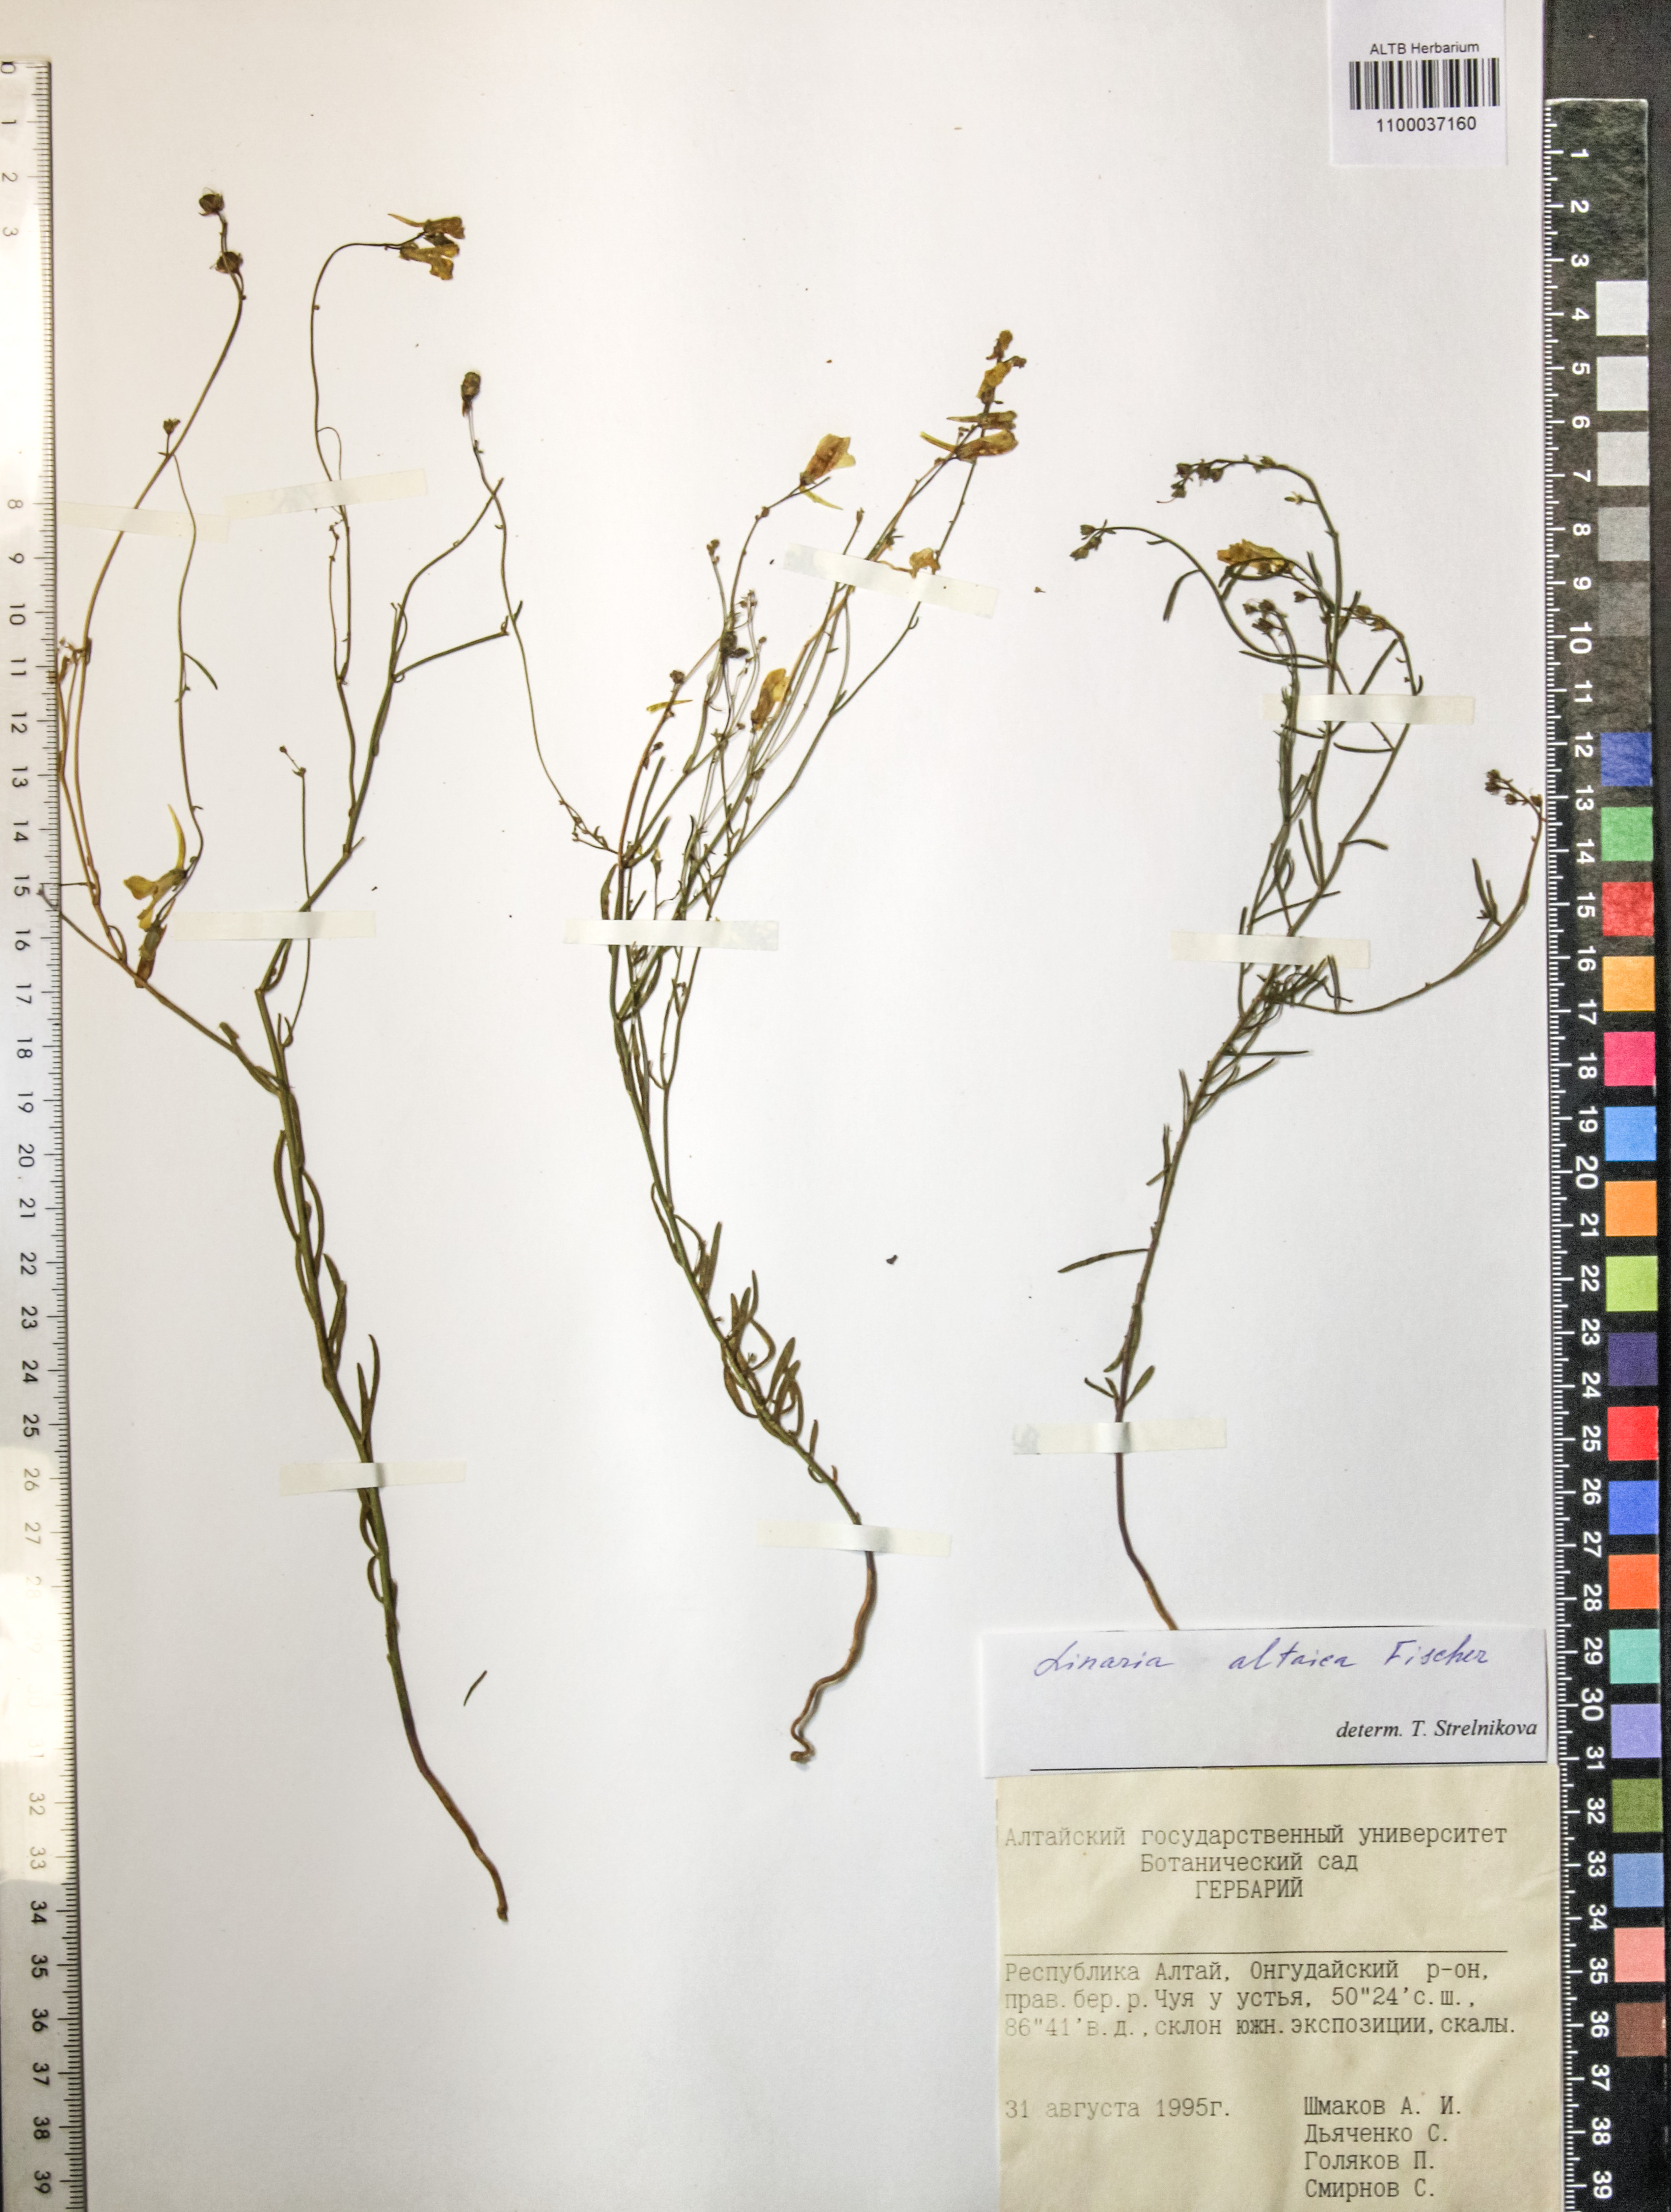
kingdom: Plantae
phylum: Tracheophyta
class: Magnoliopsida
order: Lamiales
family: Plantaginaceae
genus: Linaria
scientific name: Linaria altaica
